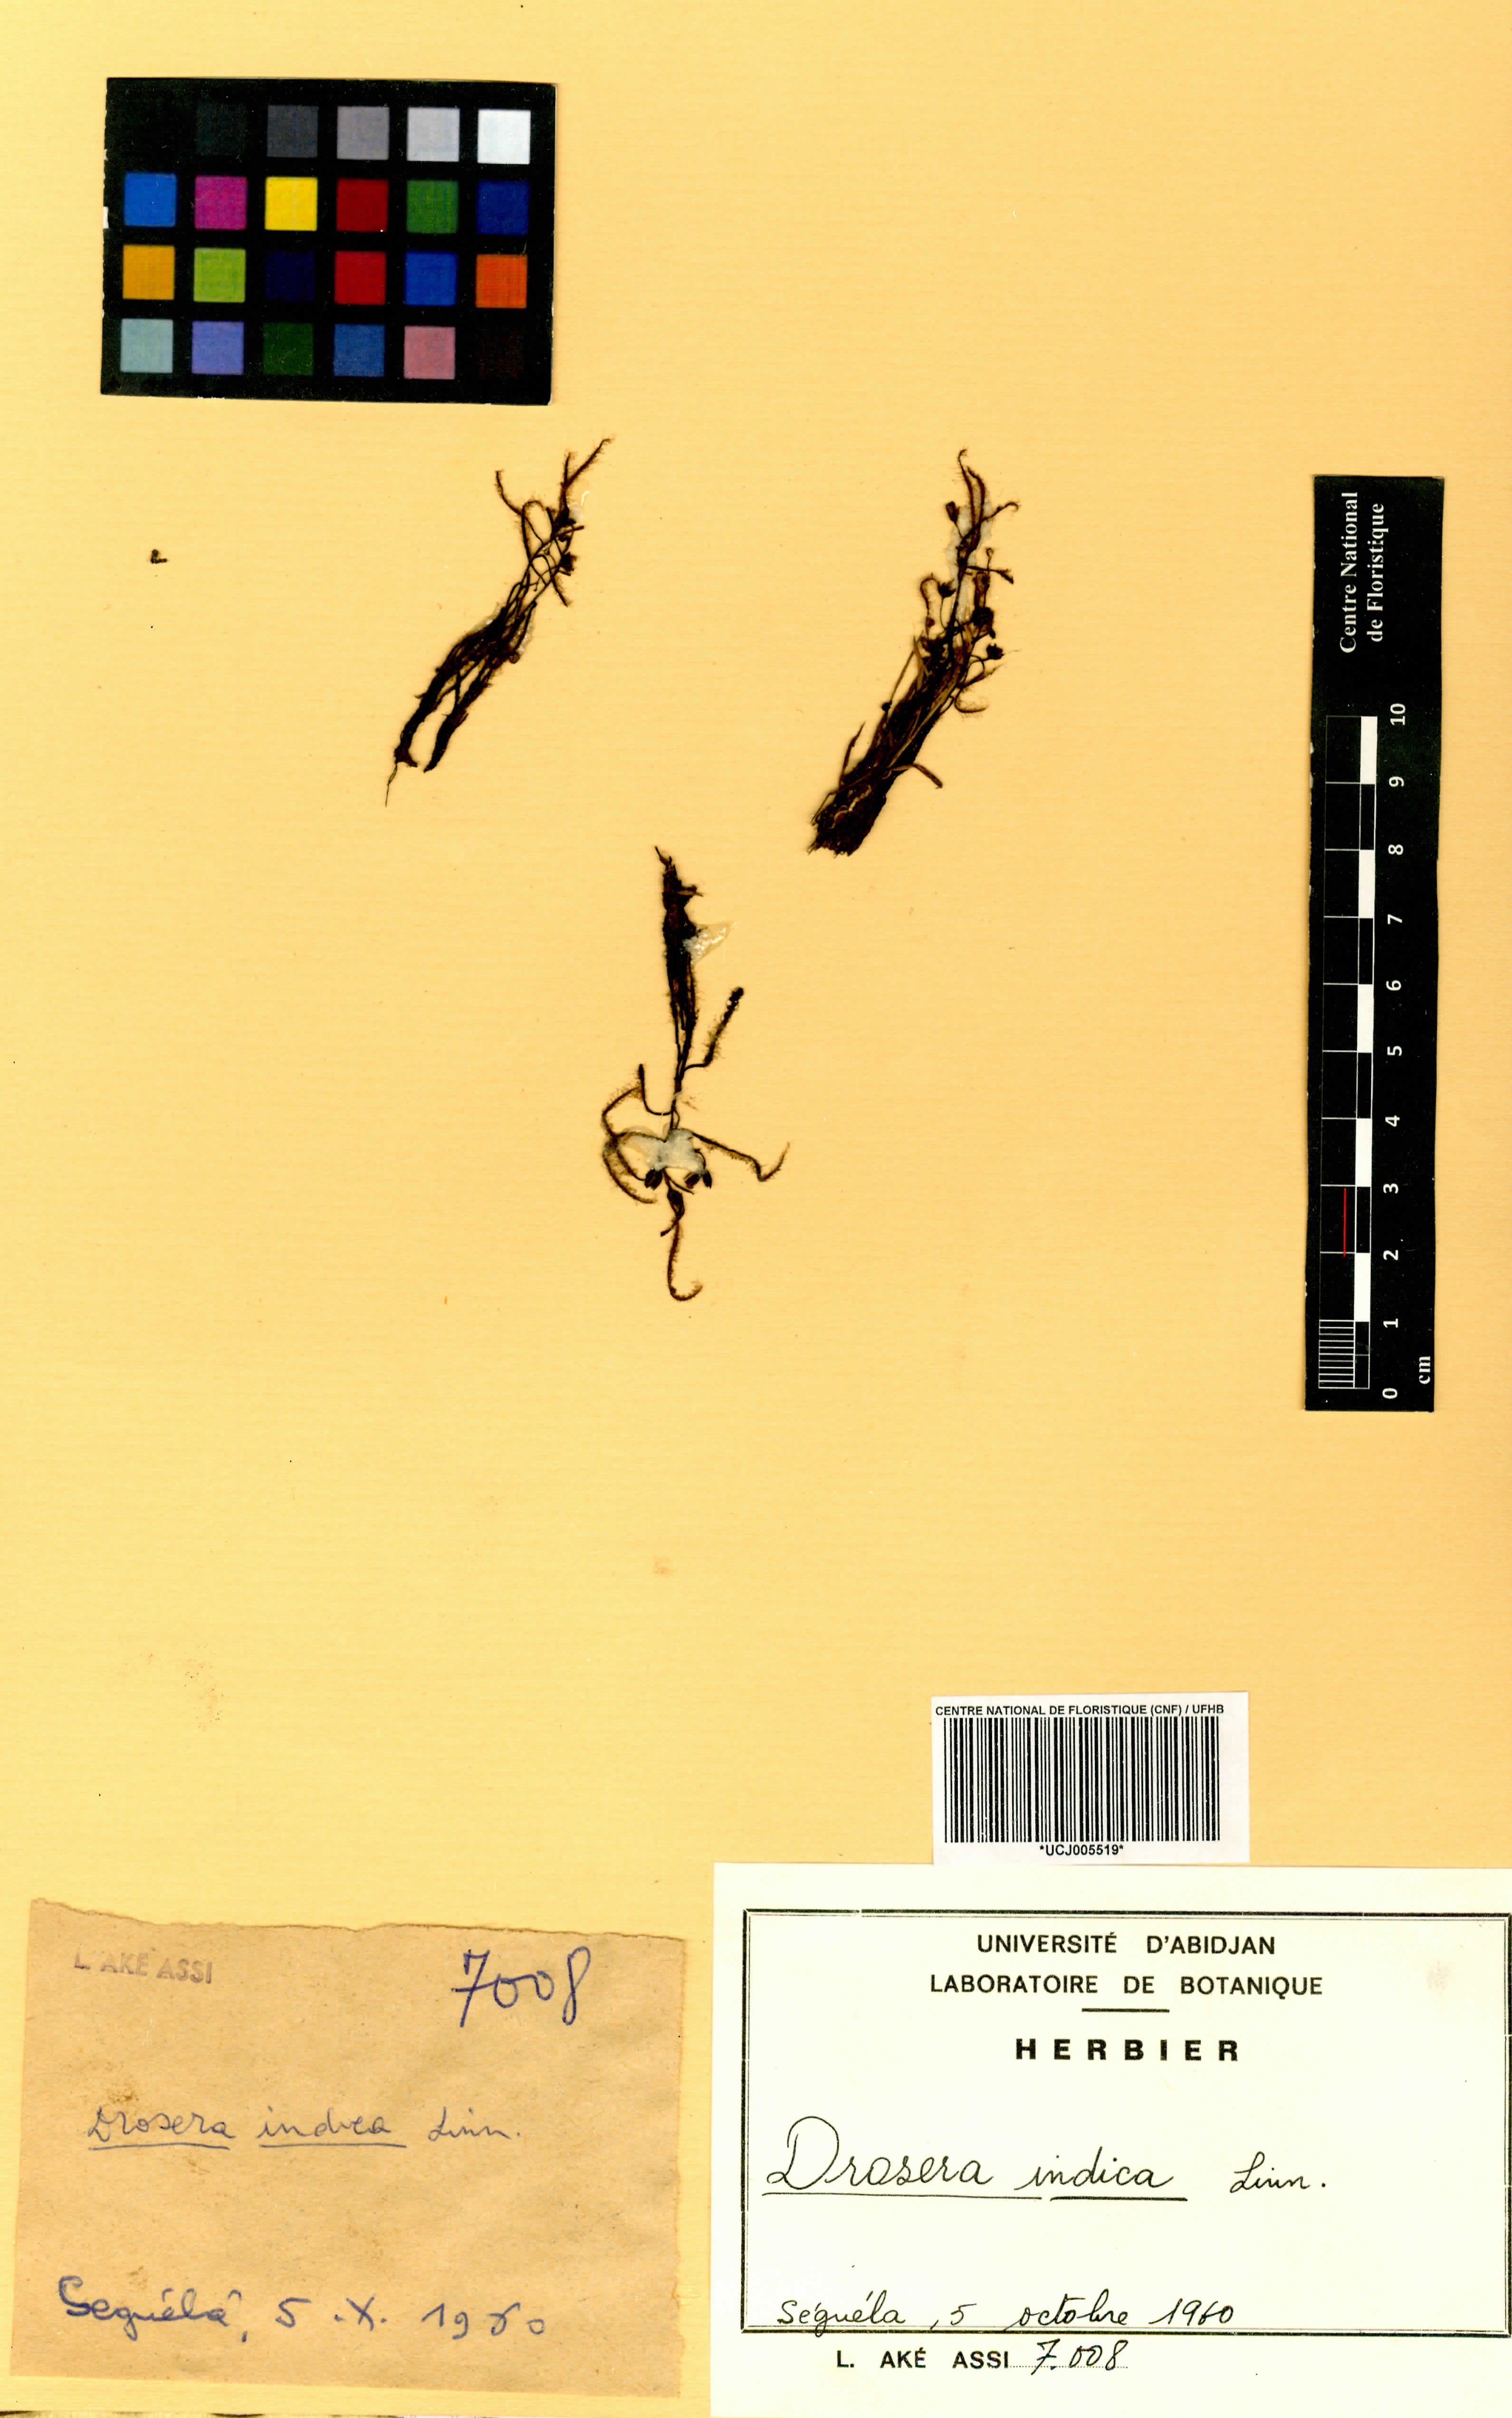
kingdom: Plantae
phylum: Tracheophyta
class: Magnoliopsida
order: Caryophyllales
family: Droseraceae
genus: Drosera
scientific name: Drosera indica
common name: Indian sundew
